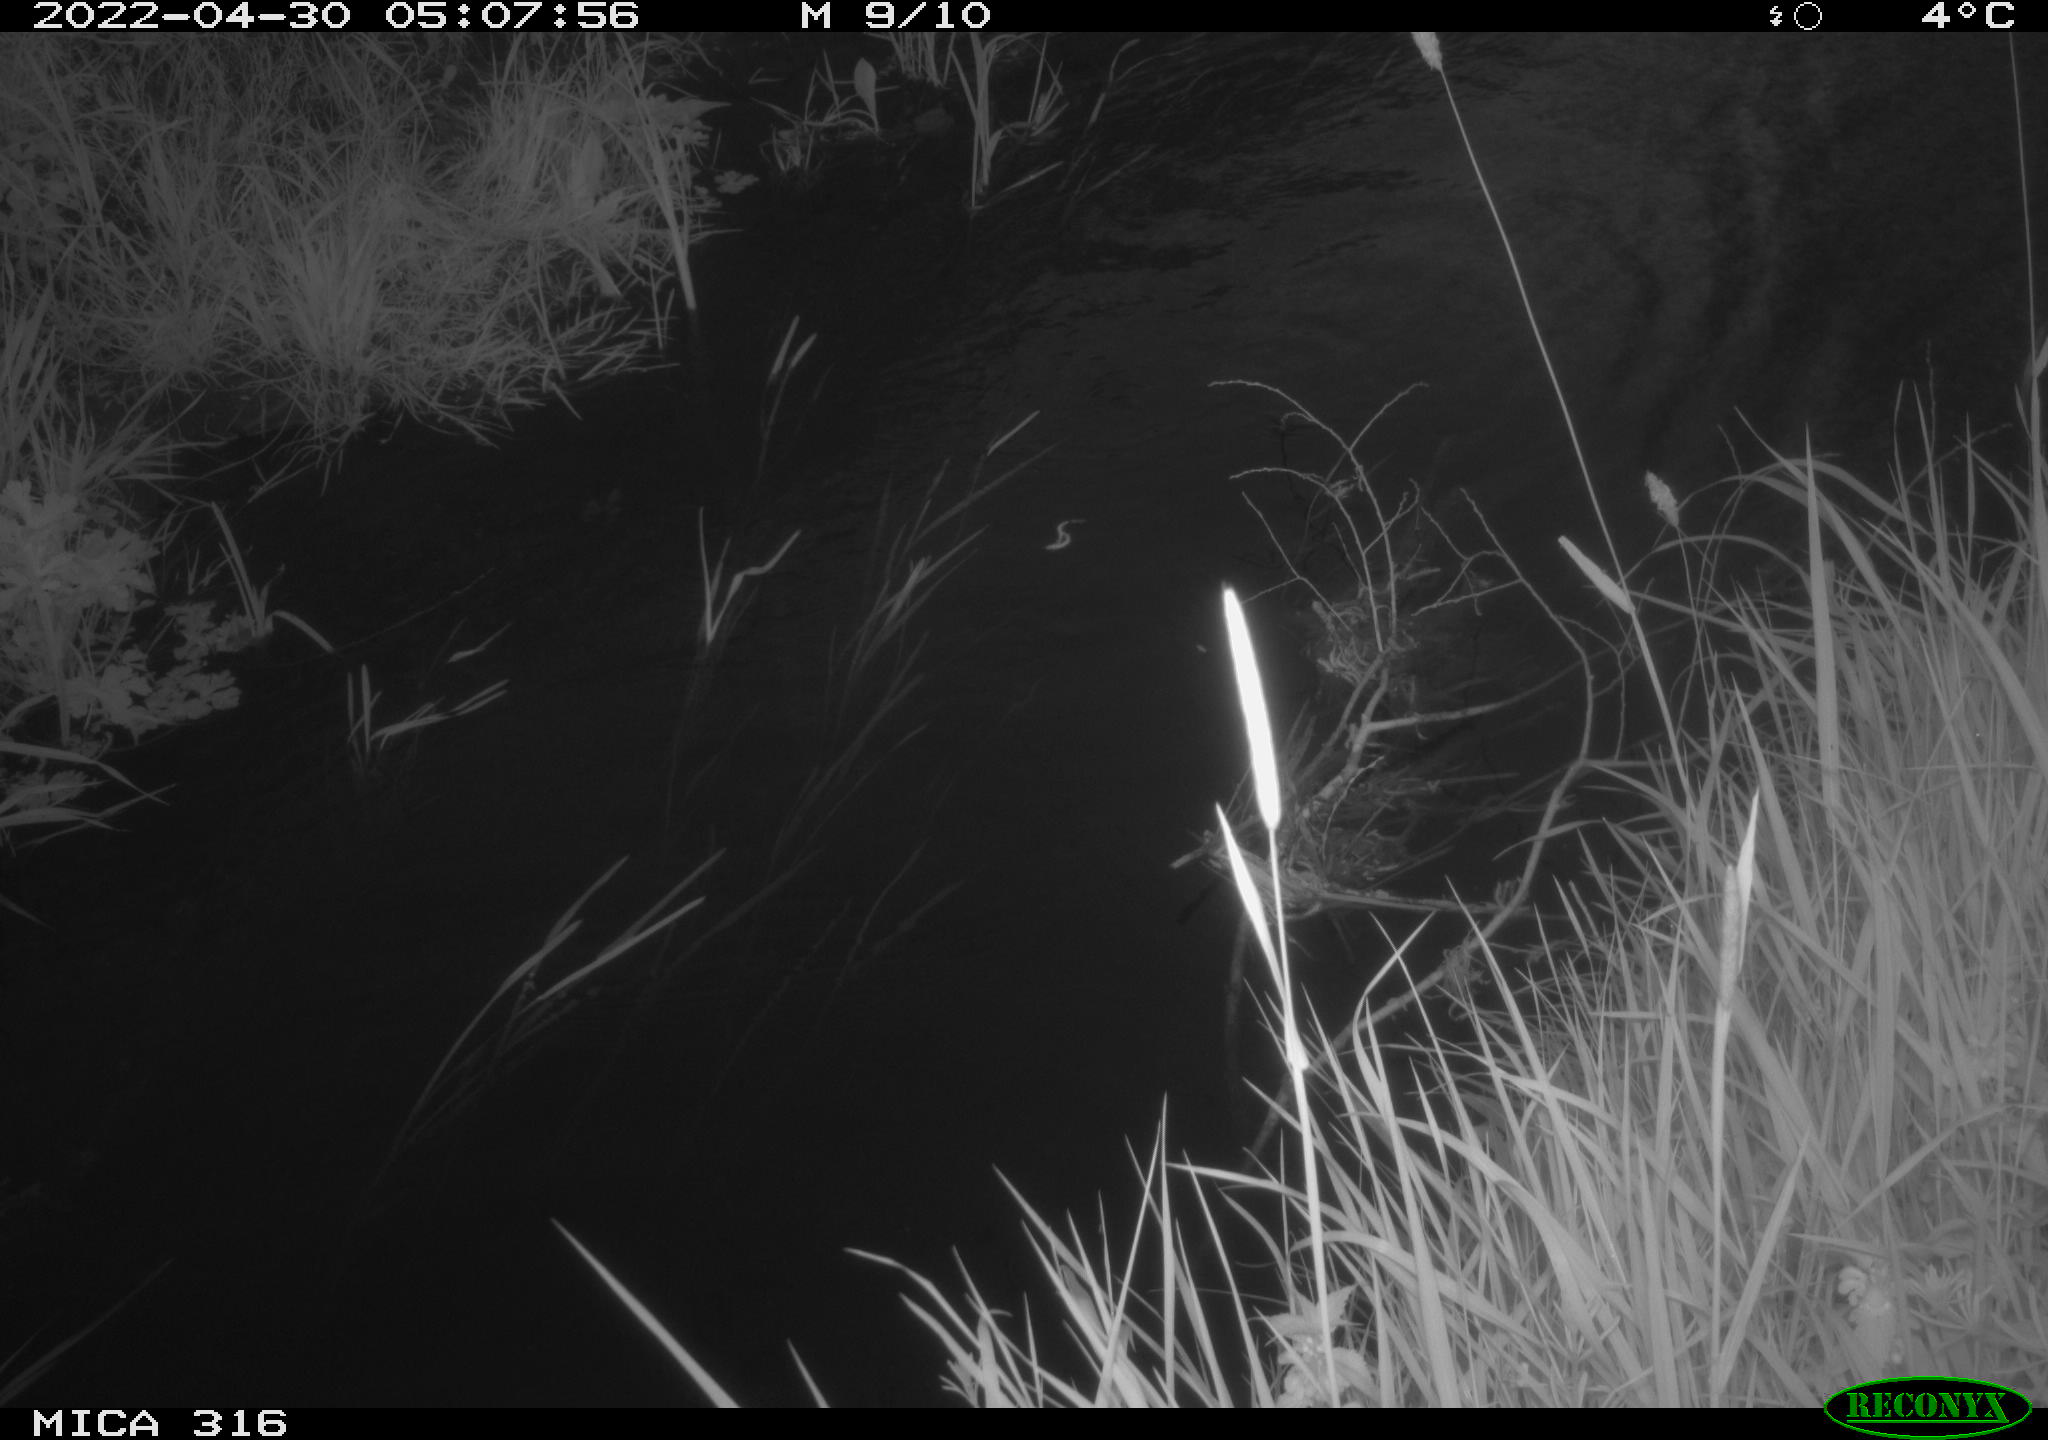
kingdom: Animalia
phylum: Chordata
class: Aves
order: Anseriformes
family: Anatidae
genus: Anas
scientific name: Anas platyrhynchos
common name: Mallard
